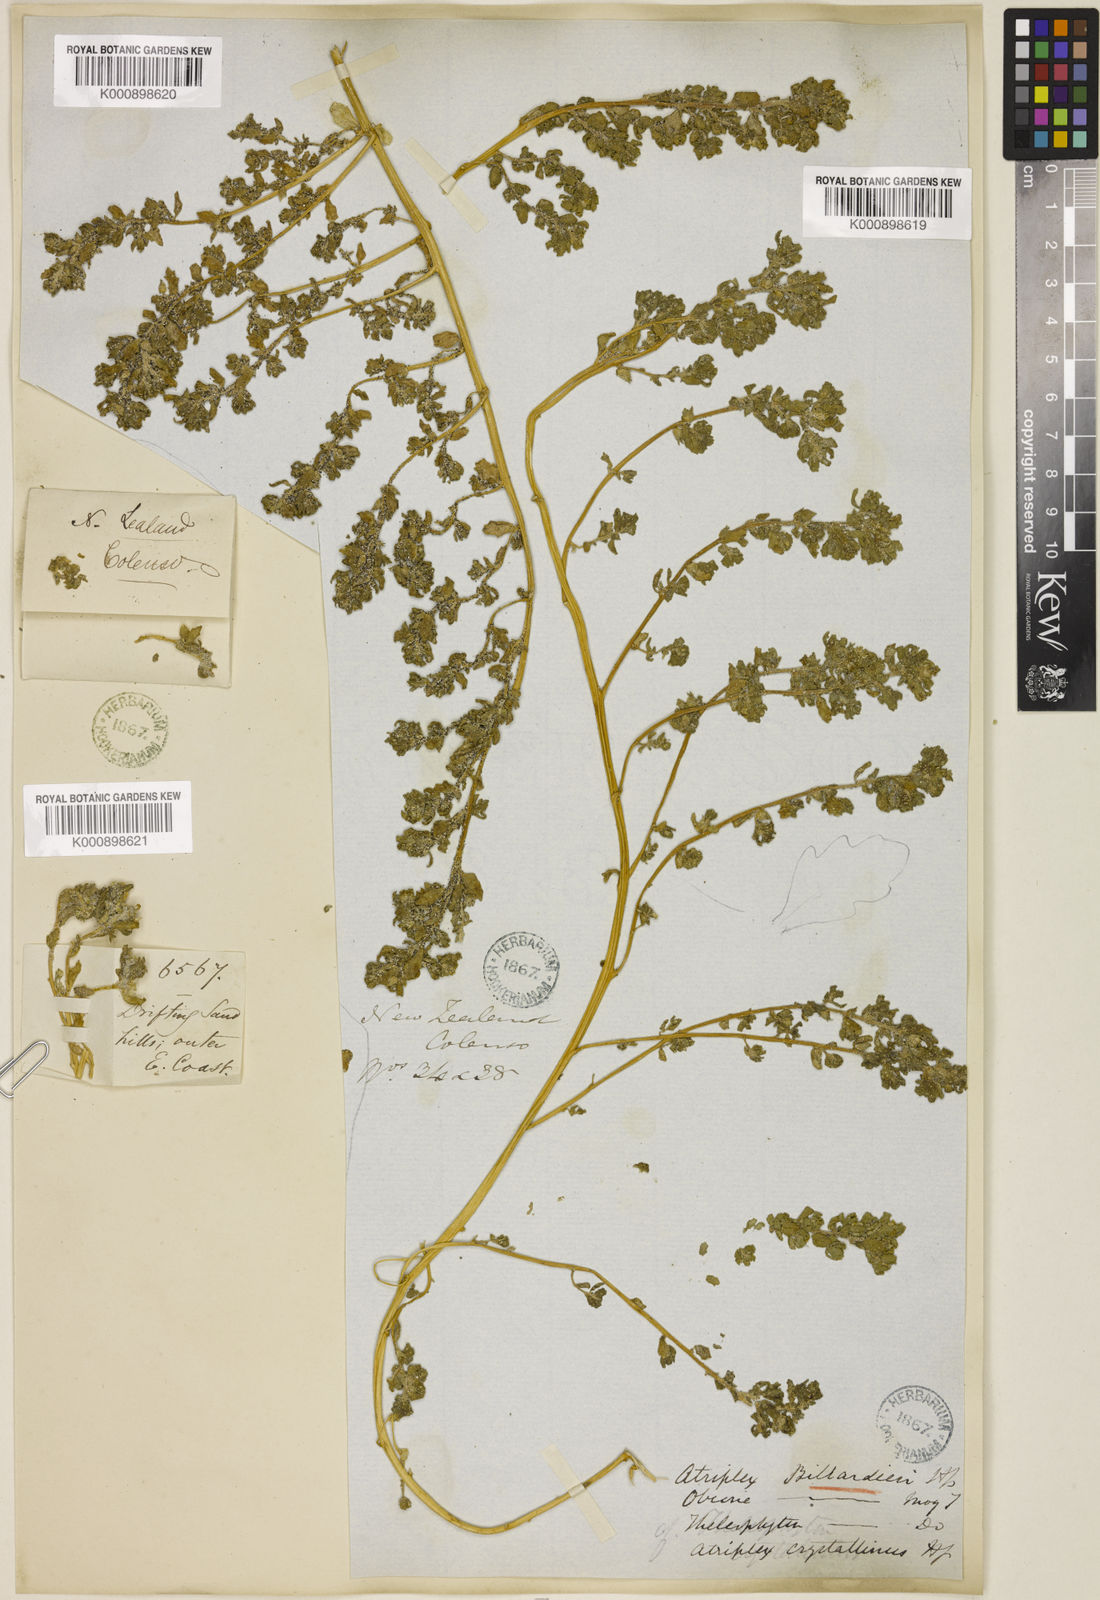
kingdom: Plantae
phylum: Tracheophyta
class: Magnoliopsida
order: Caryophyllales
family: Amaranthaceae
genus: Atriplex
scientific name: Atriplex billardierei
